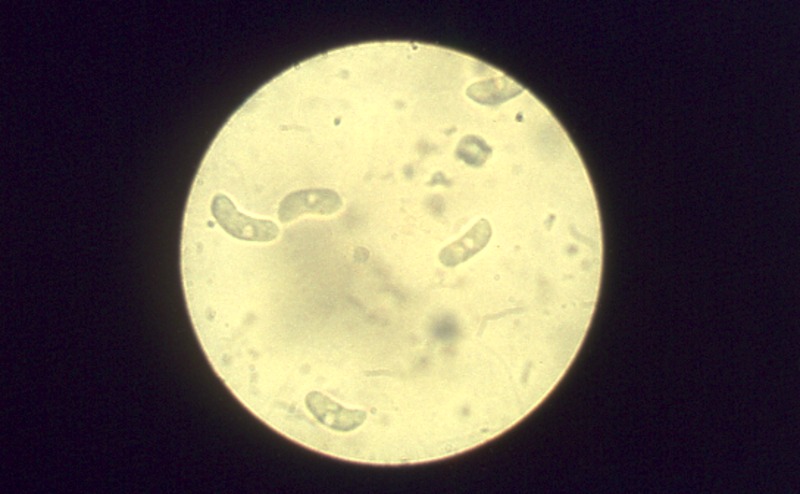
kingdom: Plantae
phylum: Tracheophyta
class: Magnoliopsida
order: Dipsacales
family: Viburnaceae
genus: Sambucus
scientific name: Sambucus nigra
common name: Elder
